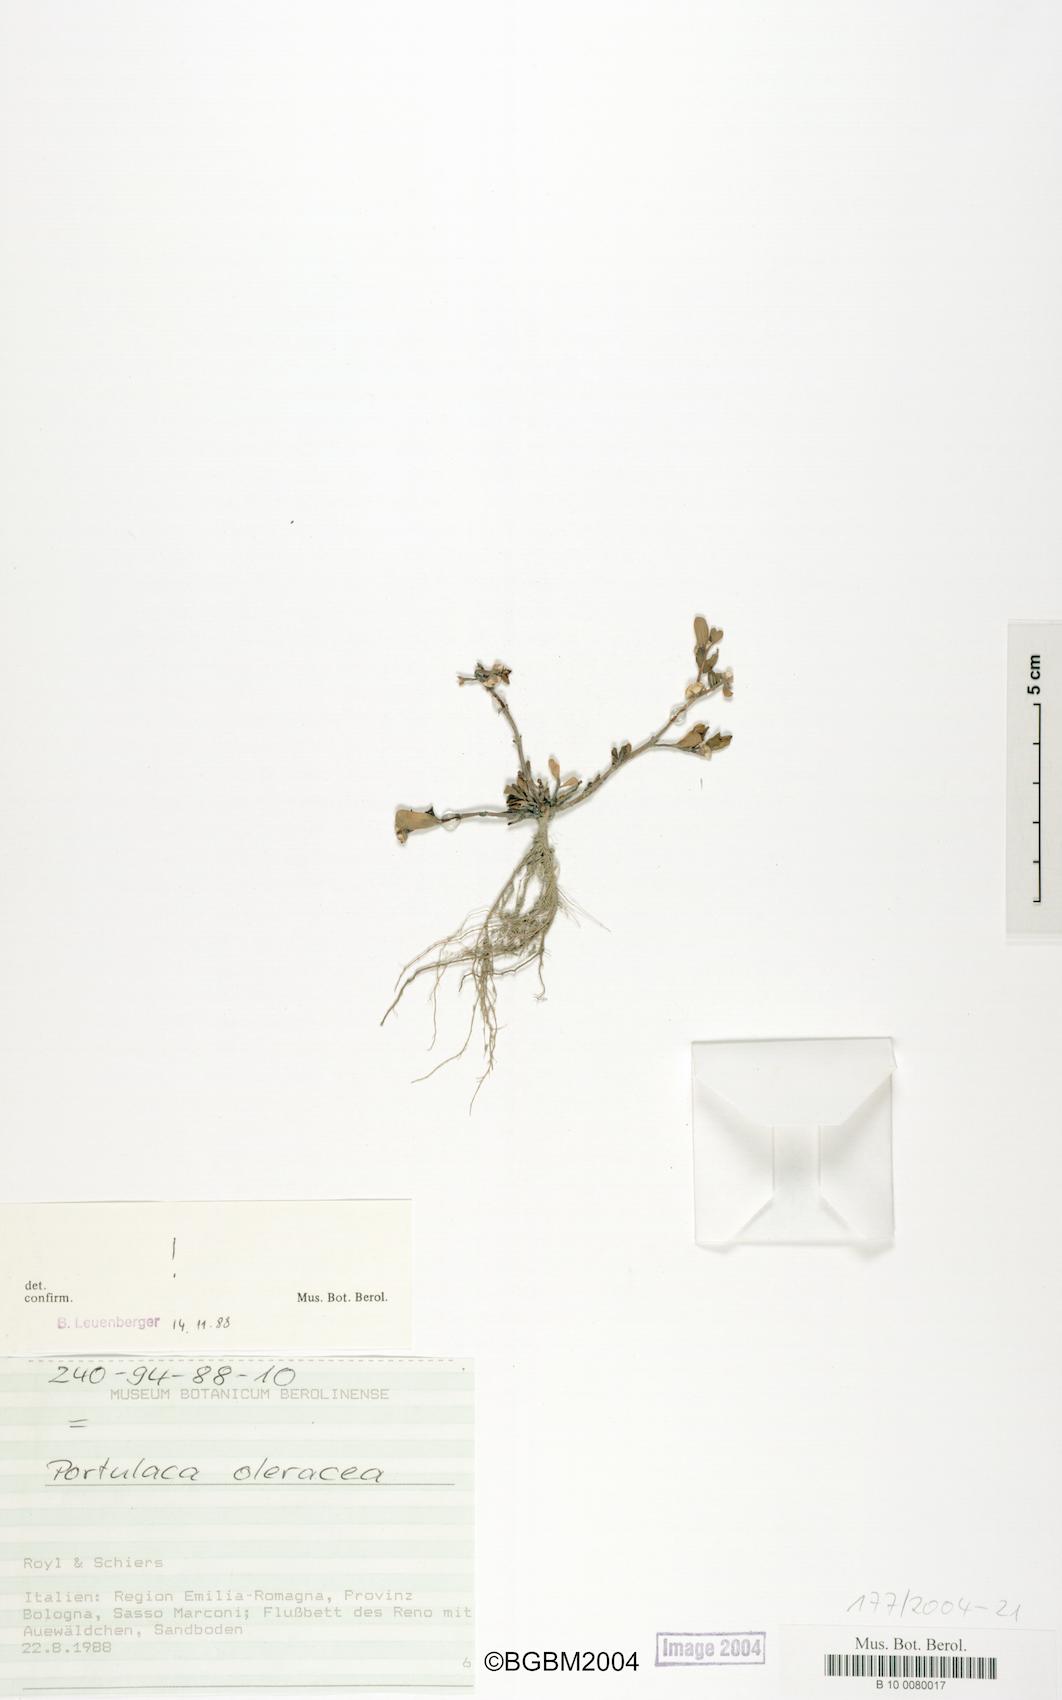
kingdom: Plantae
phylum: Tracheophyta
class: Magnoliopsida
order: Caryophyllales
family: Portulacaceae
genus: Portulaca
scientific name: Portulaca oleracea
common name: Common purslane
